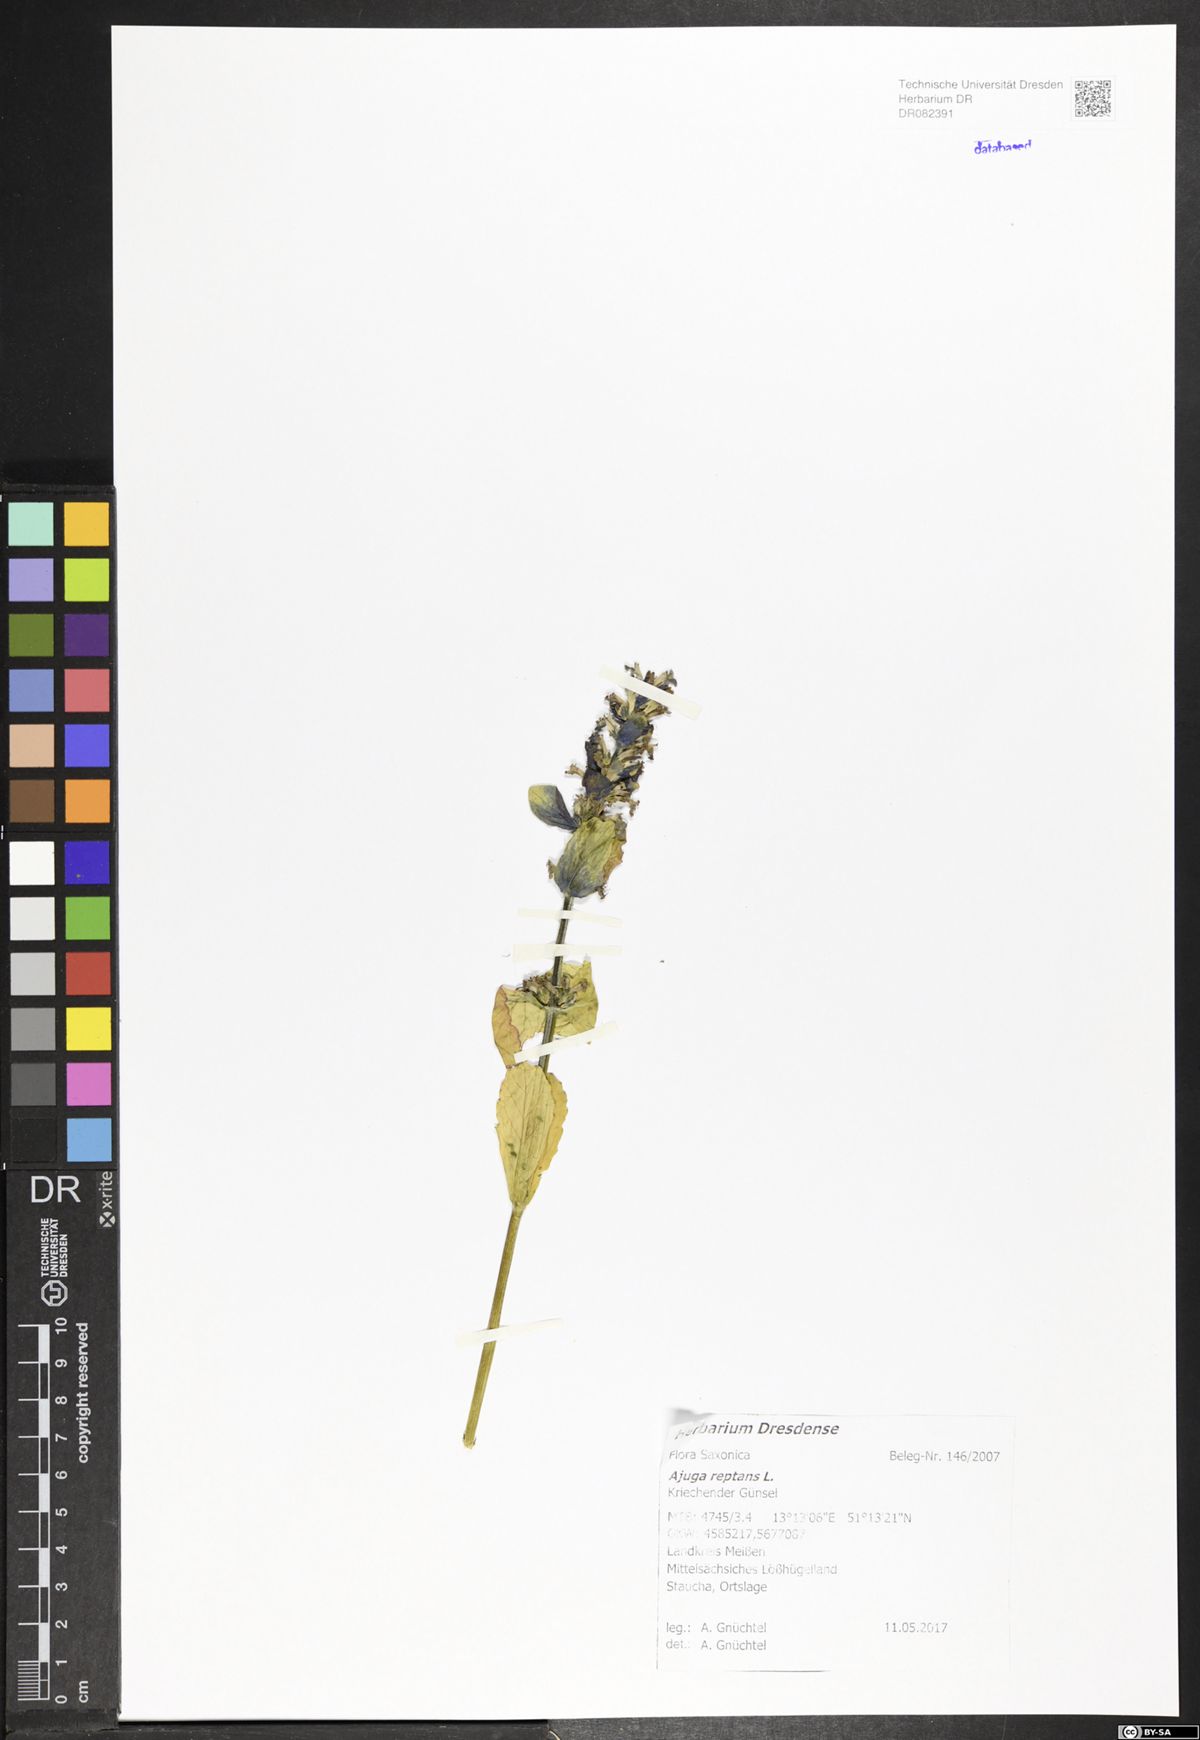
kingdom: Plantae
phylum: Tracheophyta
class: Magnoliopsida
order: Lamiales
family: Lamiaceae
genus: Ajuga
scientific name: Ajuga reptans
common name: Bugle
